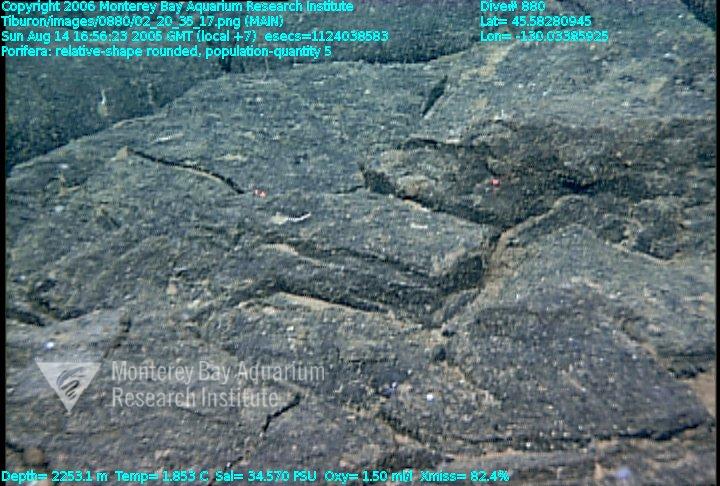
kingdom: Animalia
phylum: Porifera
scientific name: Porifera
